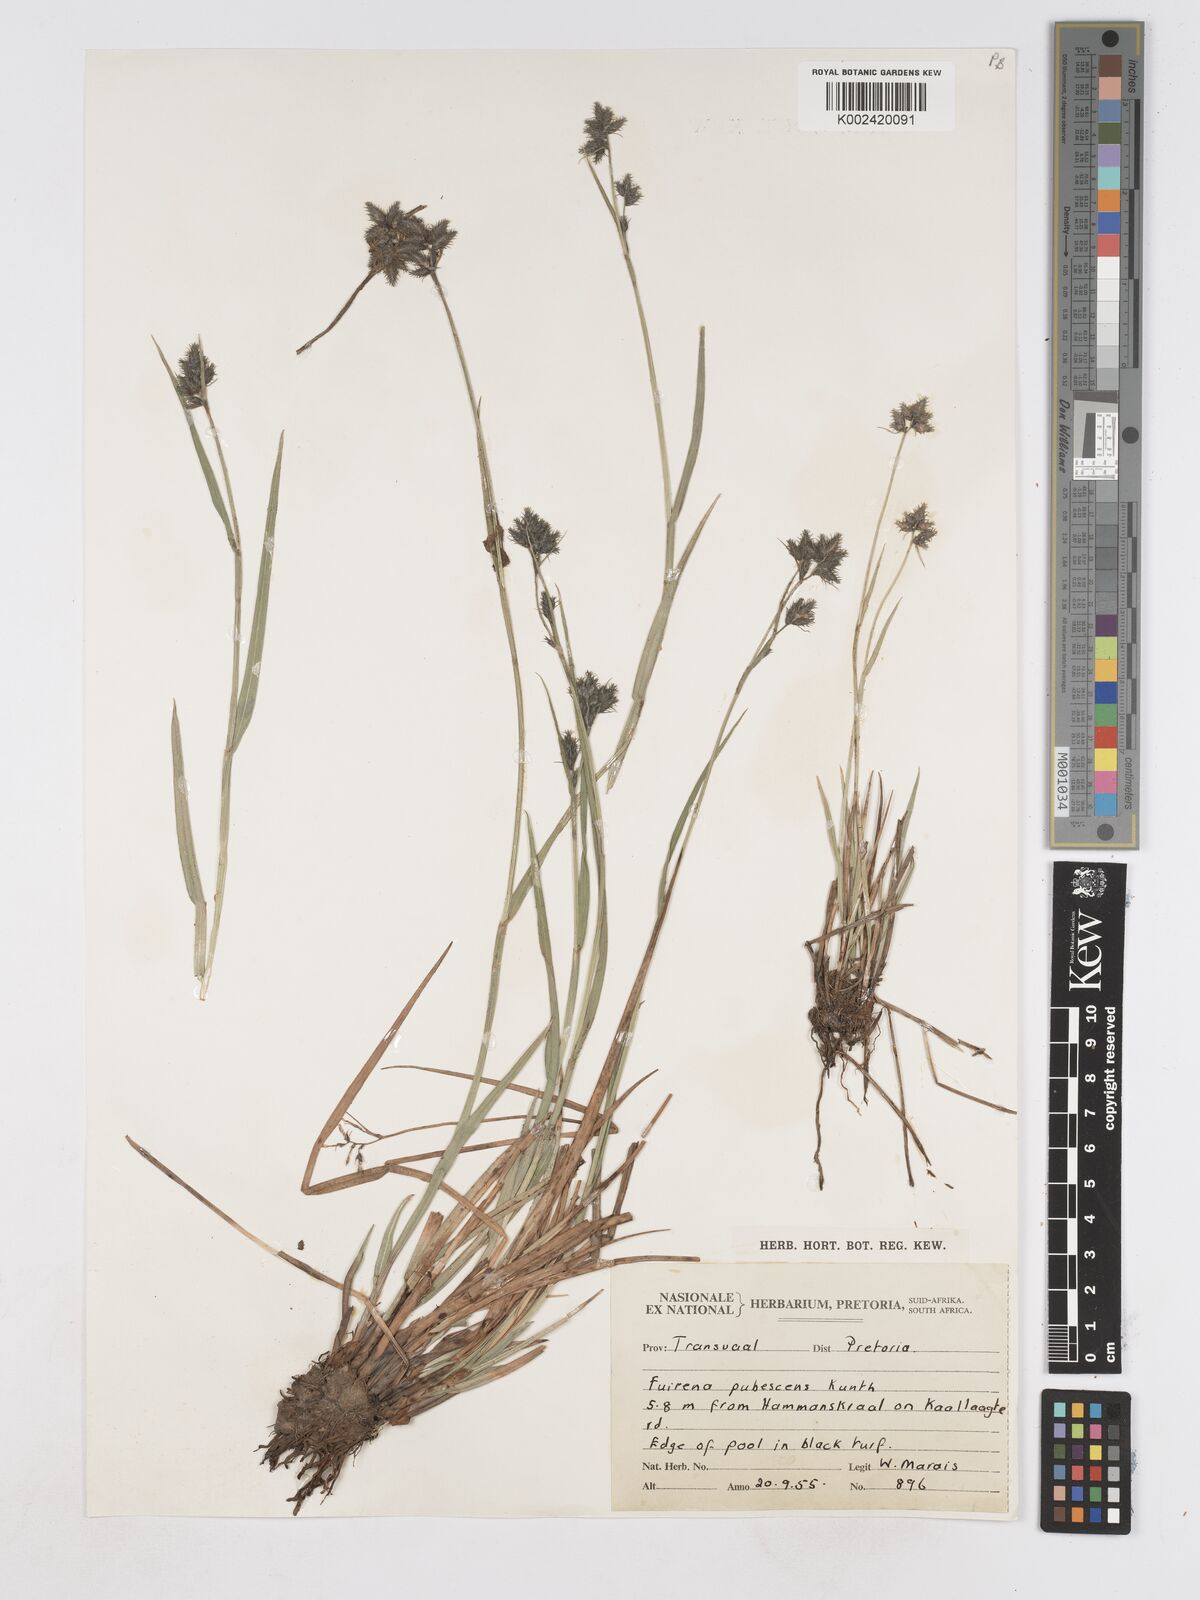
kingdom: Plantae
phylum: Tracheophyta
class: Liliopsida
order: Poales
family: Cyperaceae
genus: Fuirena
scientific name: Fuirena pubescens
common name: Hairy sedge
